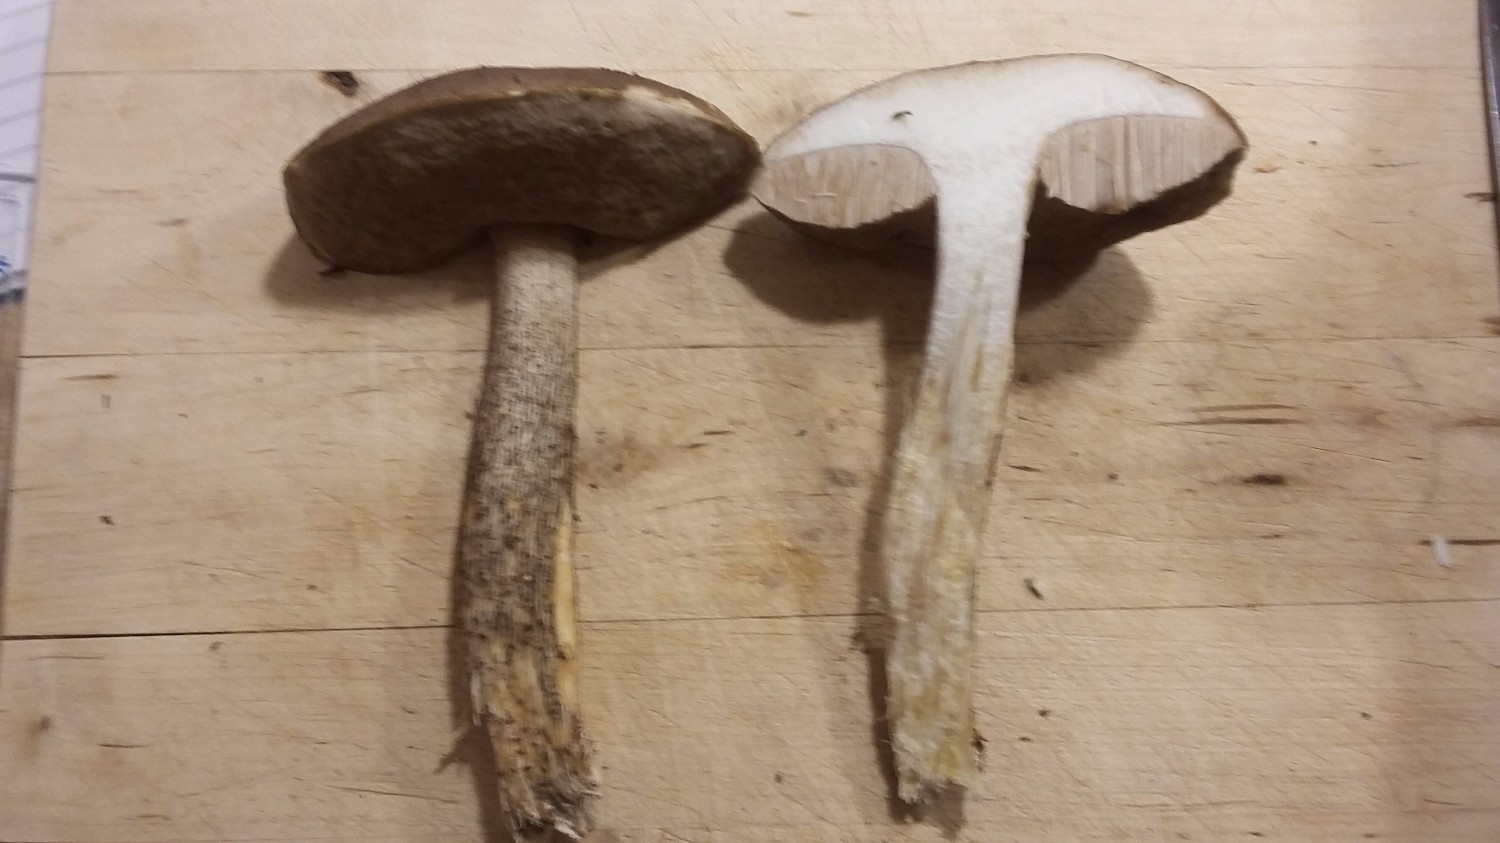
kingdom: Fungi
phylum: Basidiomycota
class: Agaricomycetes
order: Boletales
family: Boletaceae
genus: Leccinum
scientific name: Leccinum scabrum
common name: brun skælrørhat
